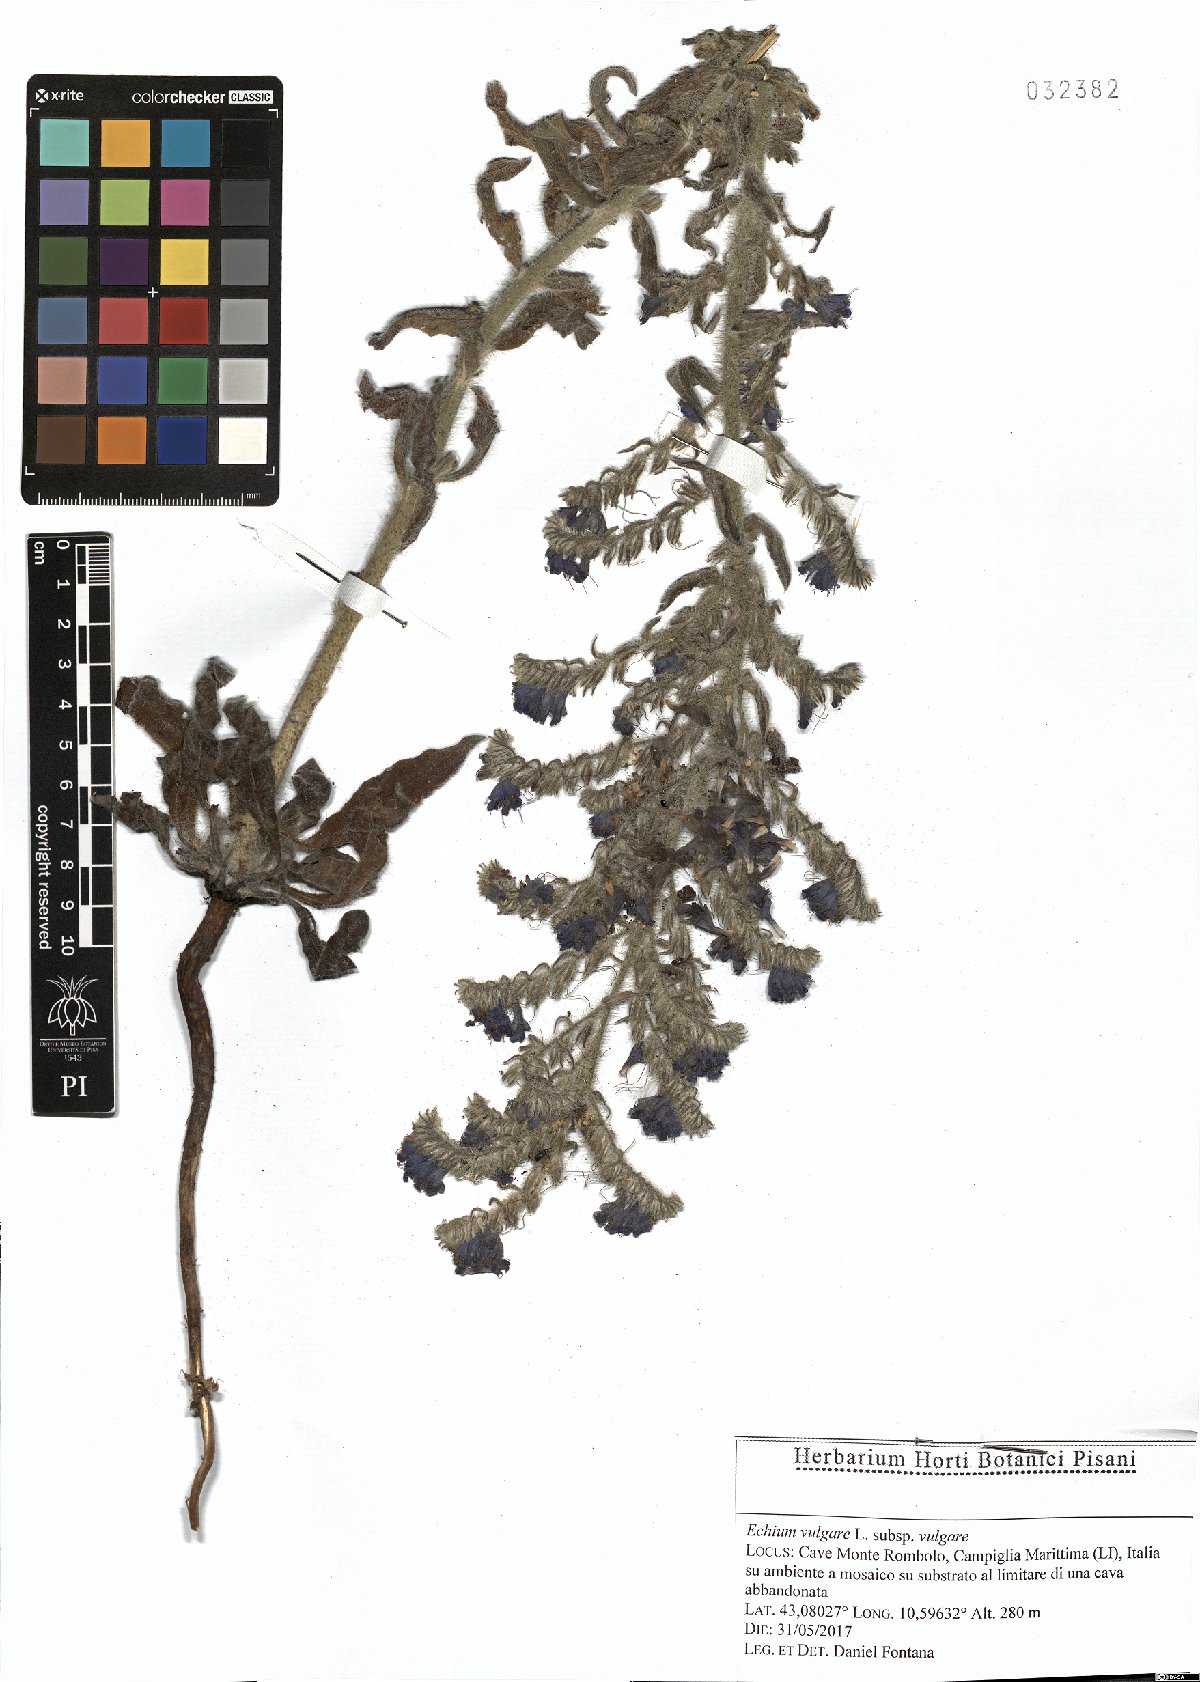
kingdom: Plantae
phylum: Tracheophyta
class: Magnoliopsida
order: Boraginales
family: Boraginaceae
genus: Echium
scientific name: Echium vulgare
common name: Common viper's bugloss
